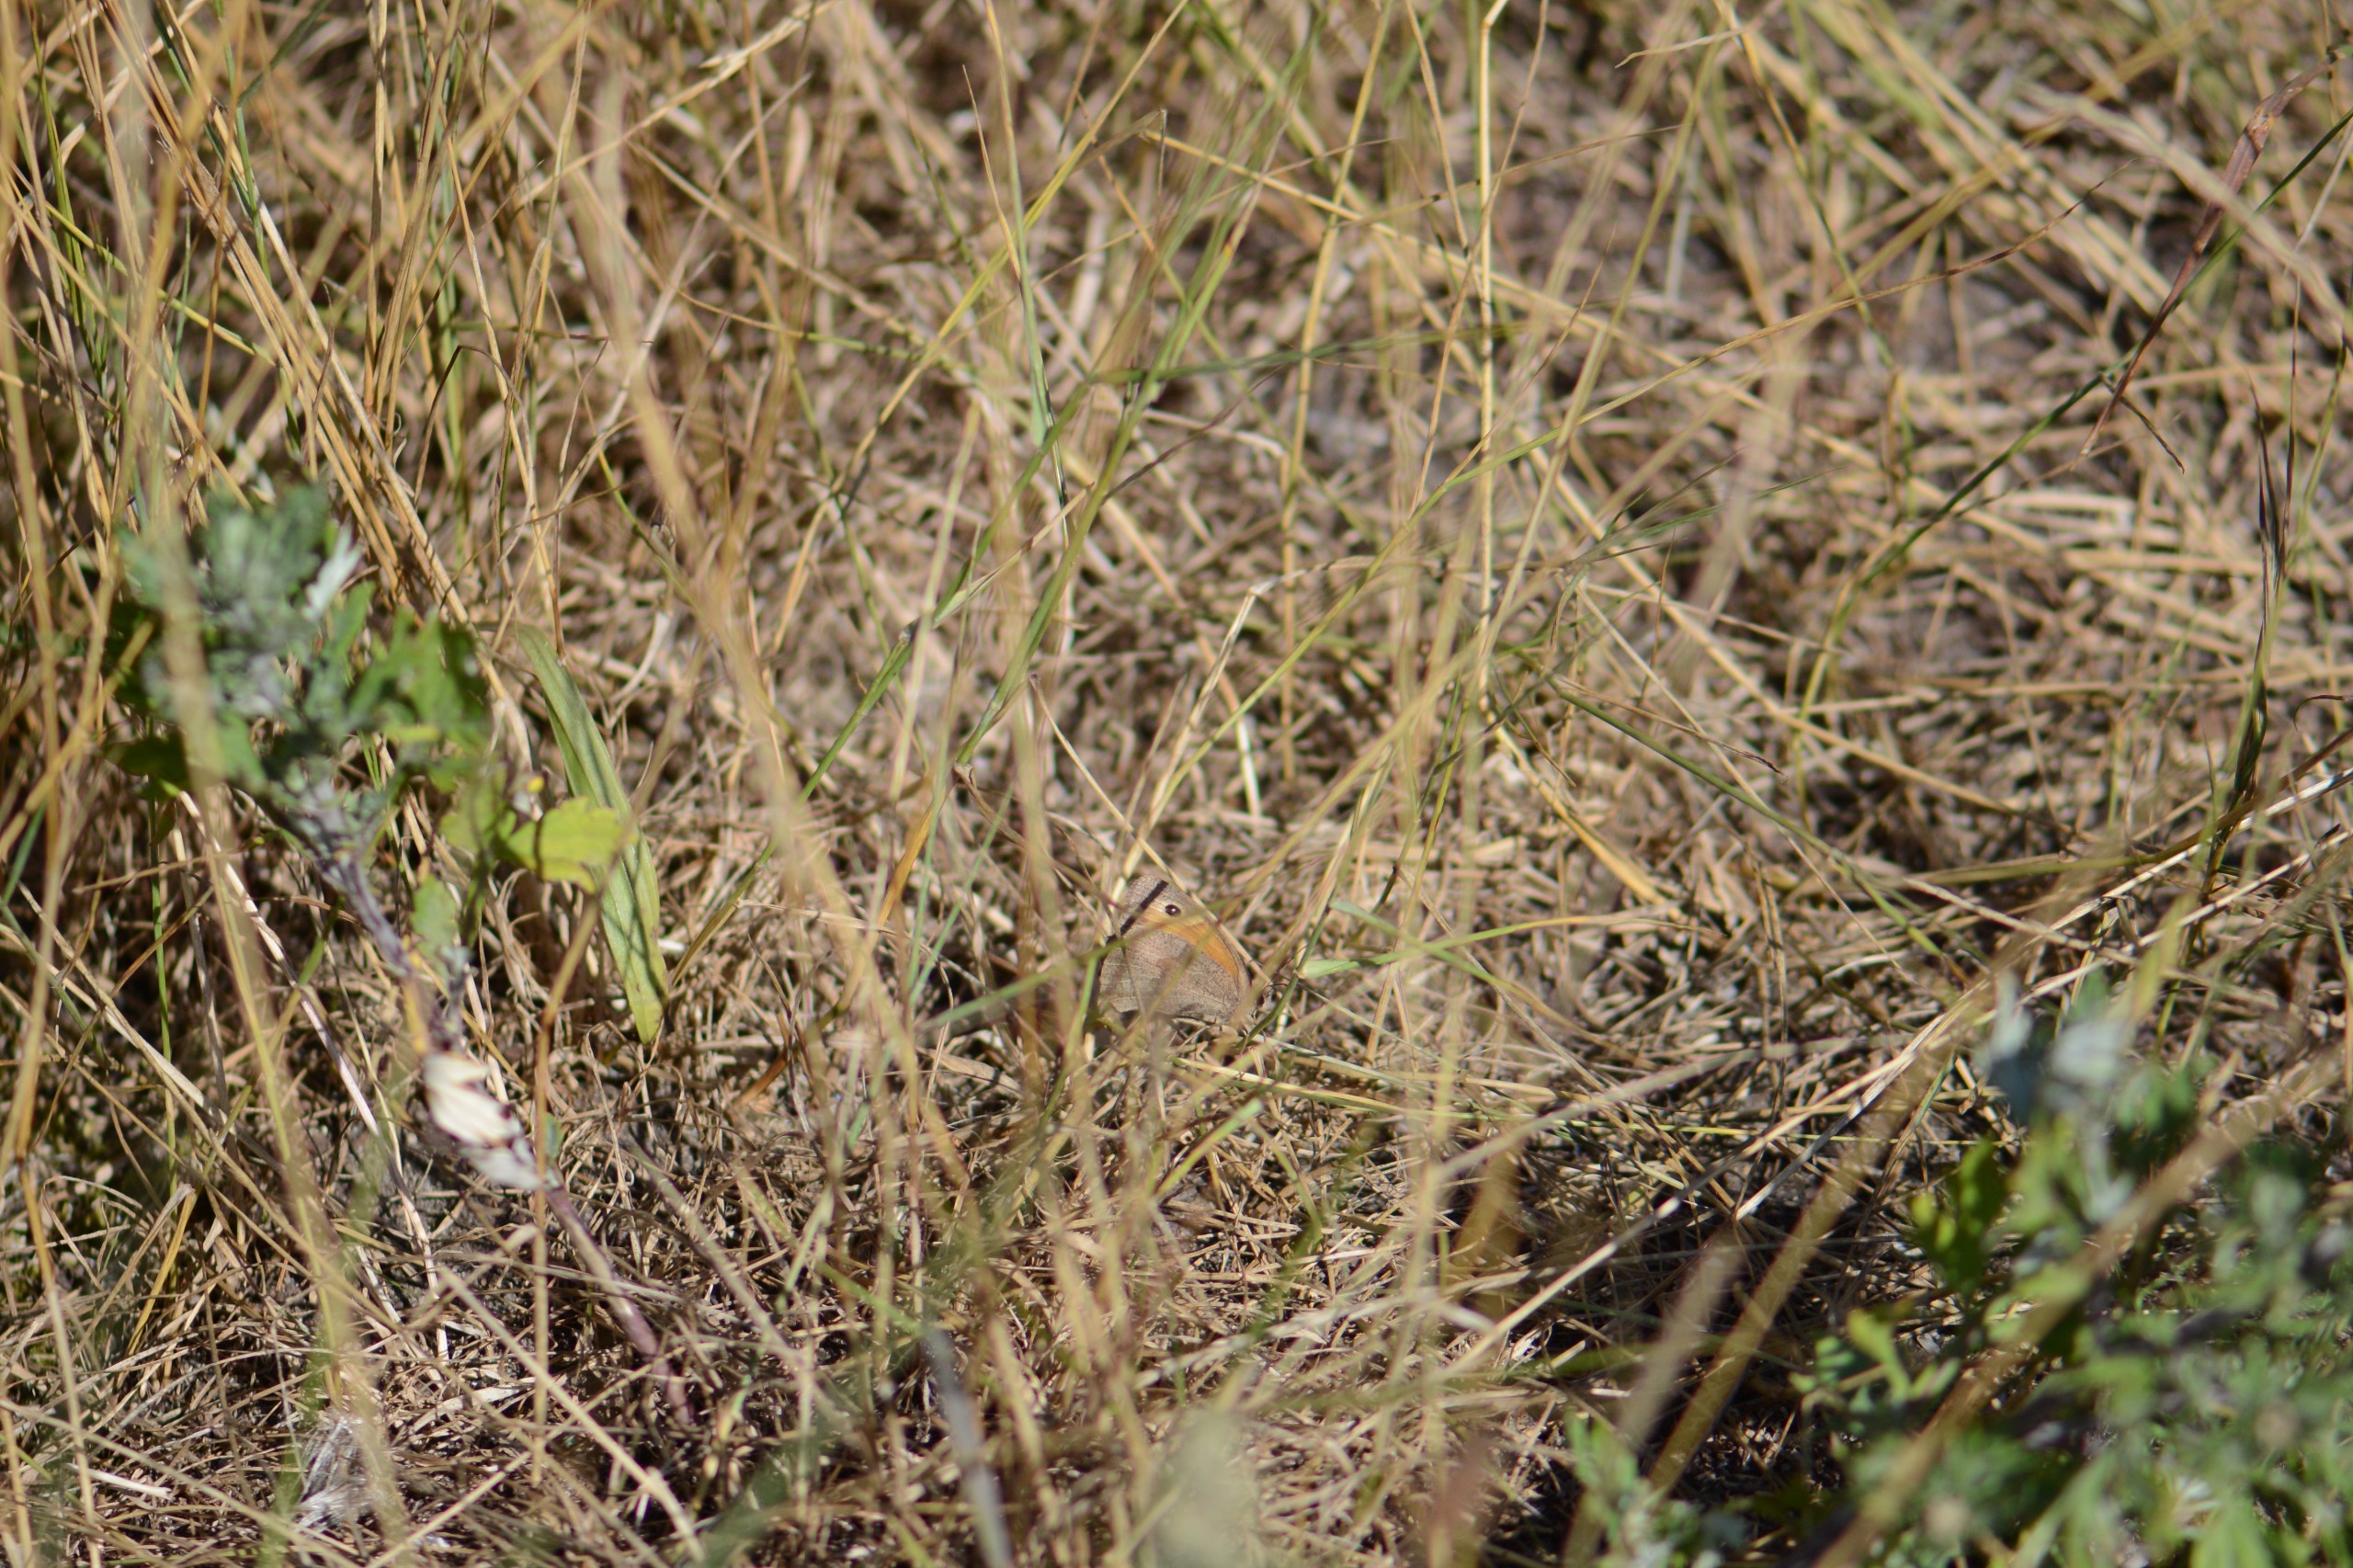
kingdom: Animalia
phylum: Arthropoda
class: Insecta
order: Lepidoptera
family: Nymphalidae
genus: Maniola
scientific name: Maniola jurtina
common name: Græsrandøje
